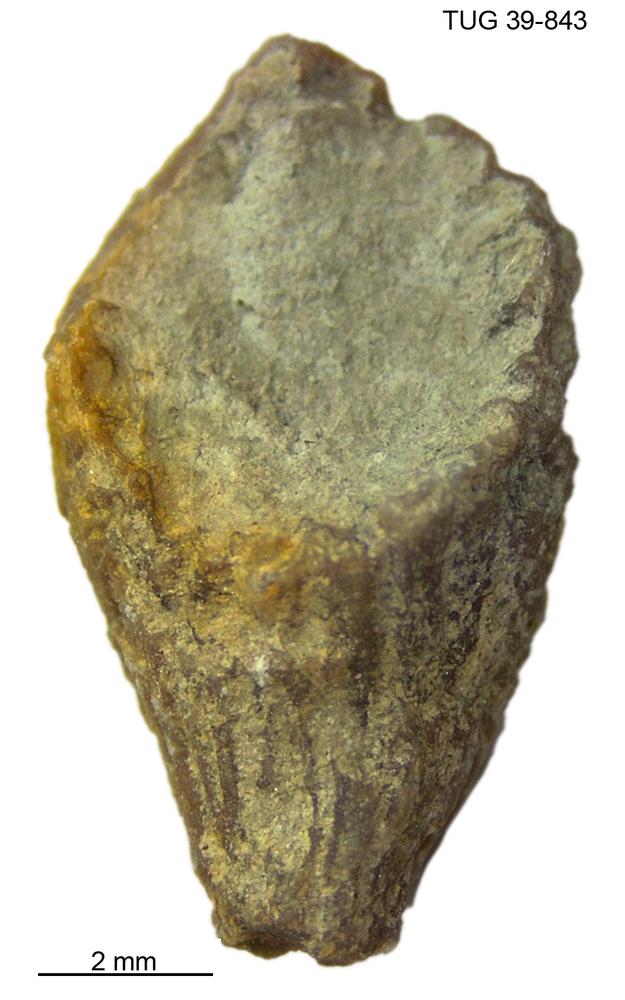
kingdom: Animalia
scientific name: Animalia
